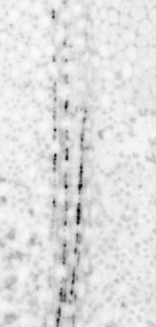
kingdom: Animalia
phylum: Chordata
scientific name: Chordata
